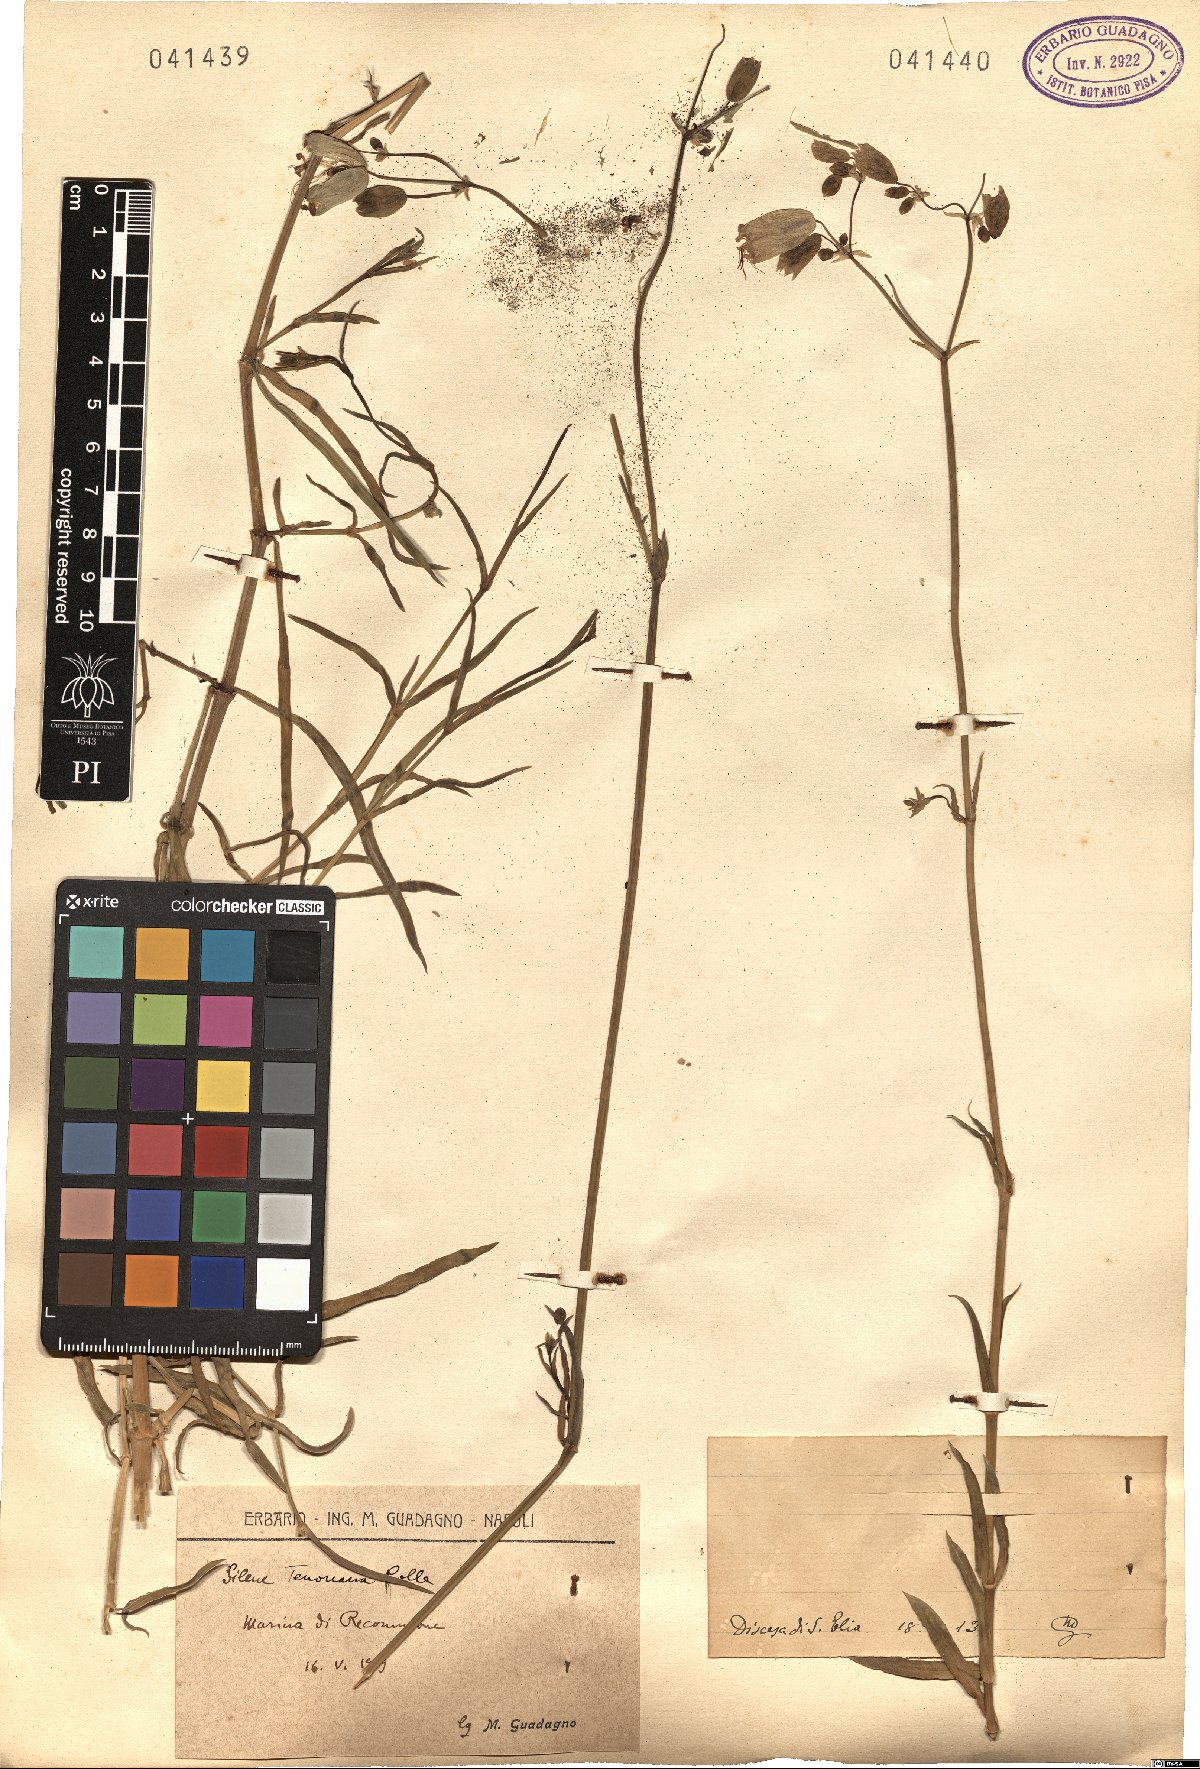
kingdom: Plantae
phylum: Tracheophyta
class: Magnoliopsida
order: Caryophyllales
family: Caryophyllaceae
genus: Silene
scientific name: Silene
